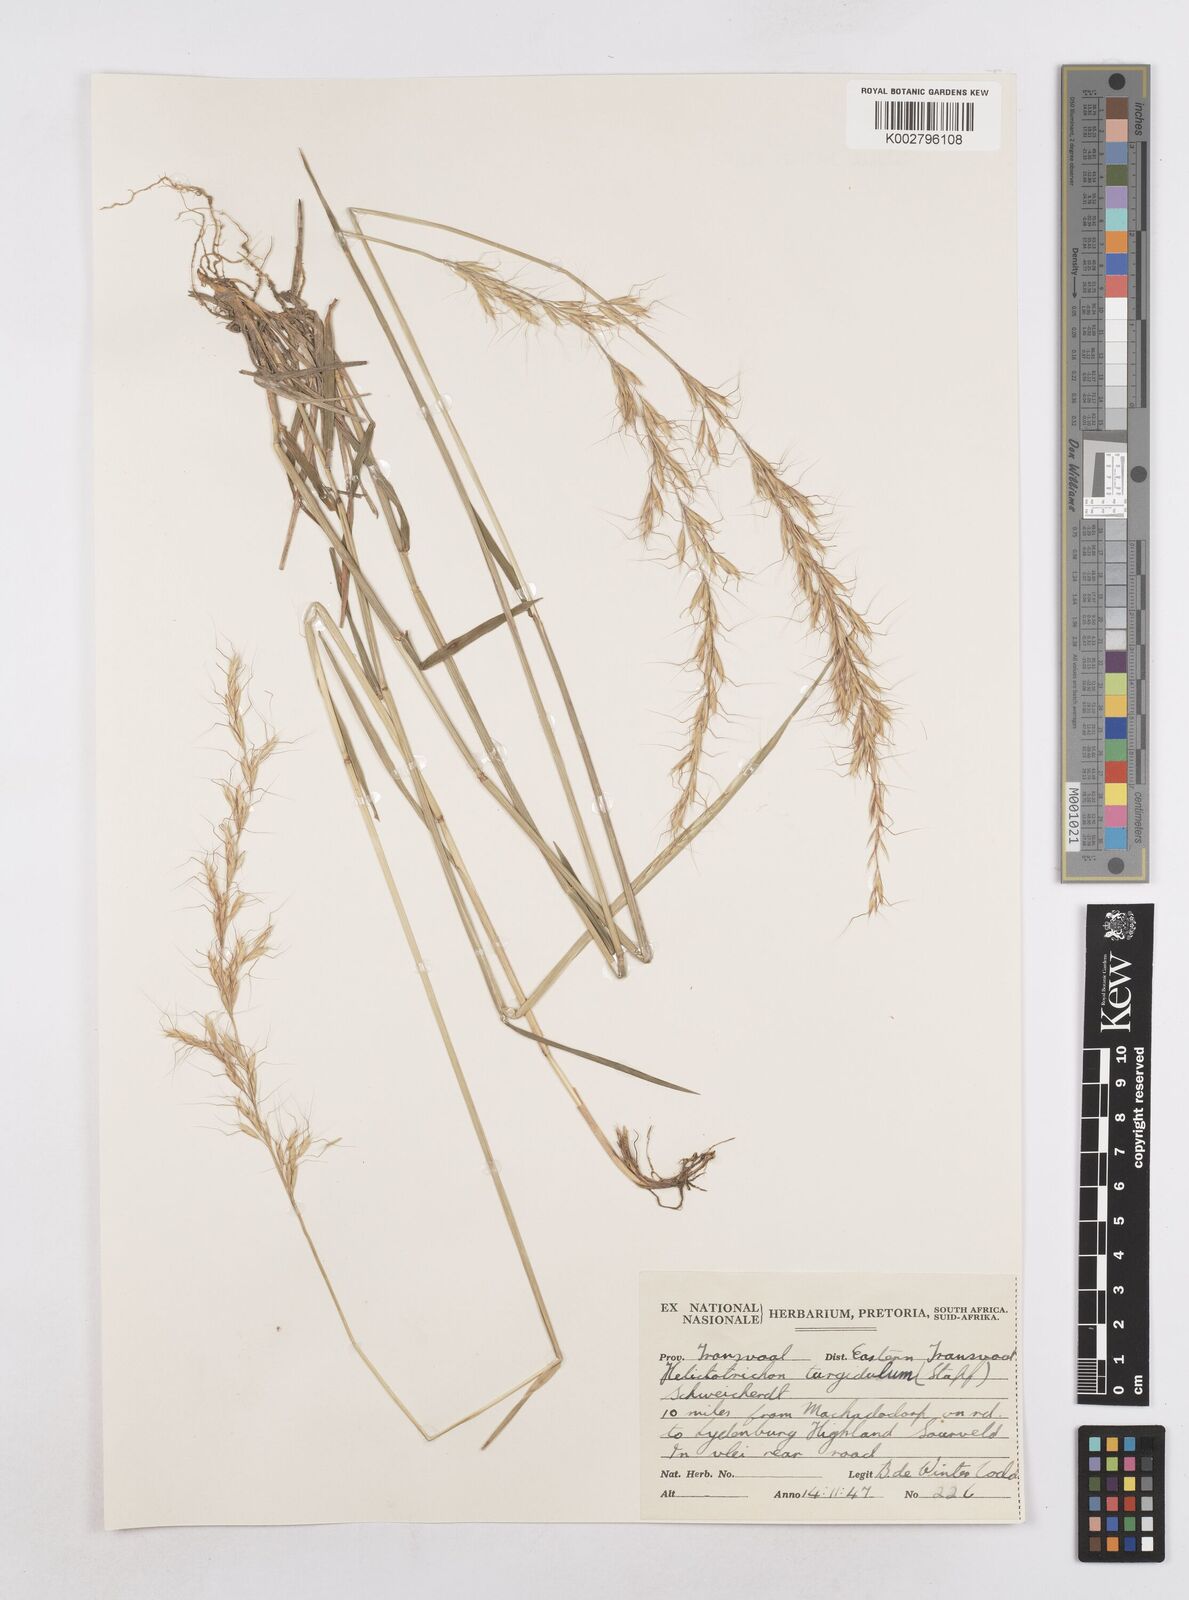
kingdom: Plantae
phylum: Tracheophyta
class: Liliopsida
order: Poales
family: Poaceae
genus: Trisetopsis
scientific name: Trisetopsis imberbis
